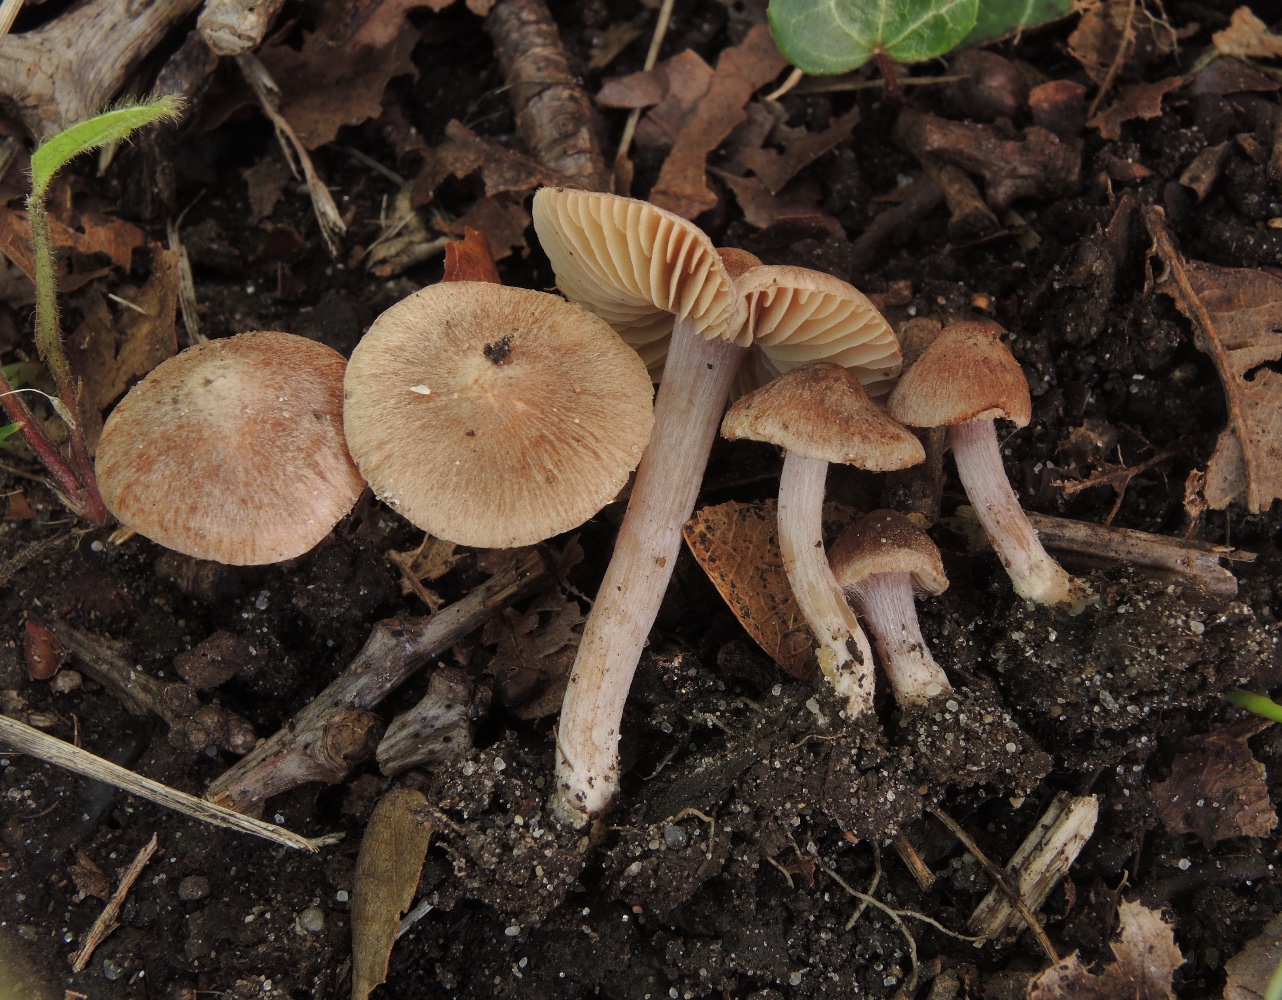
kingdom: Fungi
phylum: Basidiomycota
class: Agaricomycetes
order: Agaricales
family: Inocybaceae
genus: Inocybe
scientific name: Inocybe
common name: trævlhat
